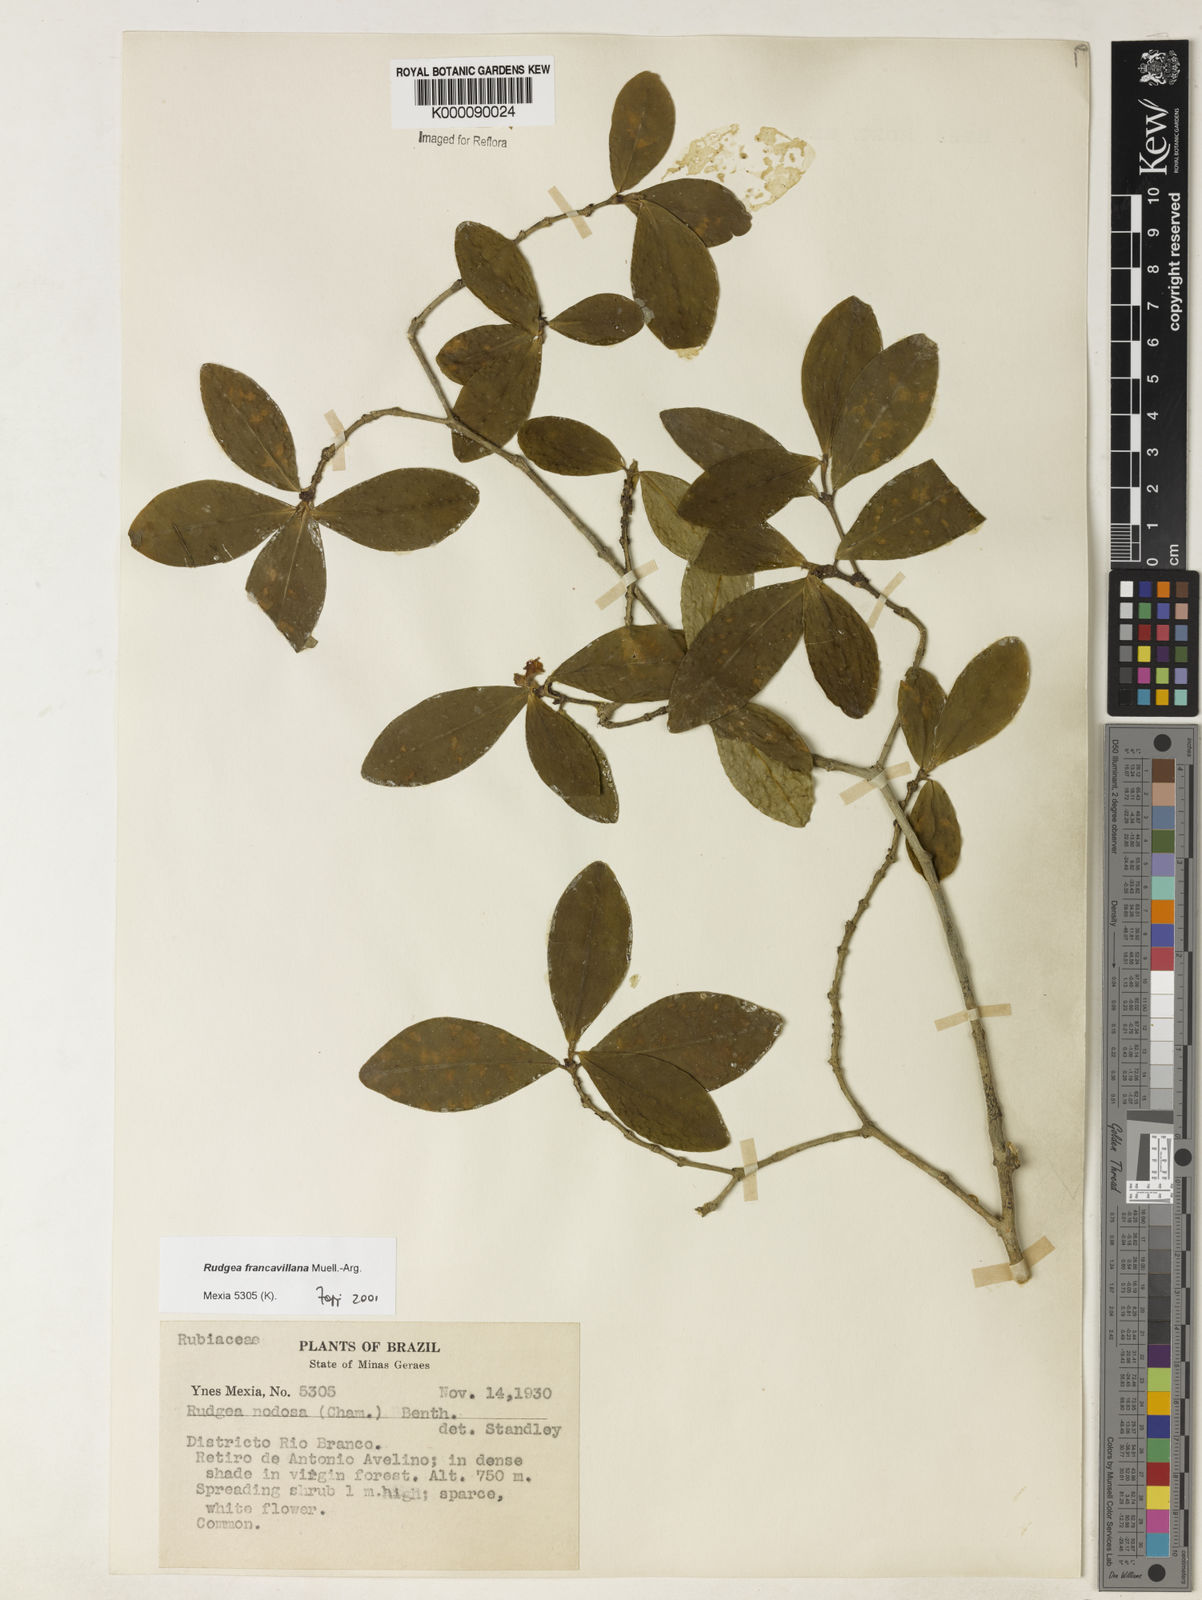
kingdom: Plantae
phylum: Tracheophyta
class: Magnoliopsida
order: Gentianales
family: Rubiaceae
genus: Rudgea
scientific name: Rudgea francavillana
